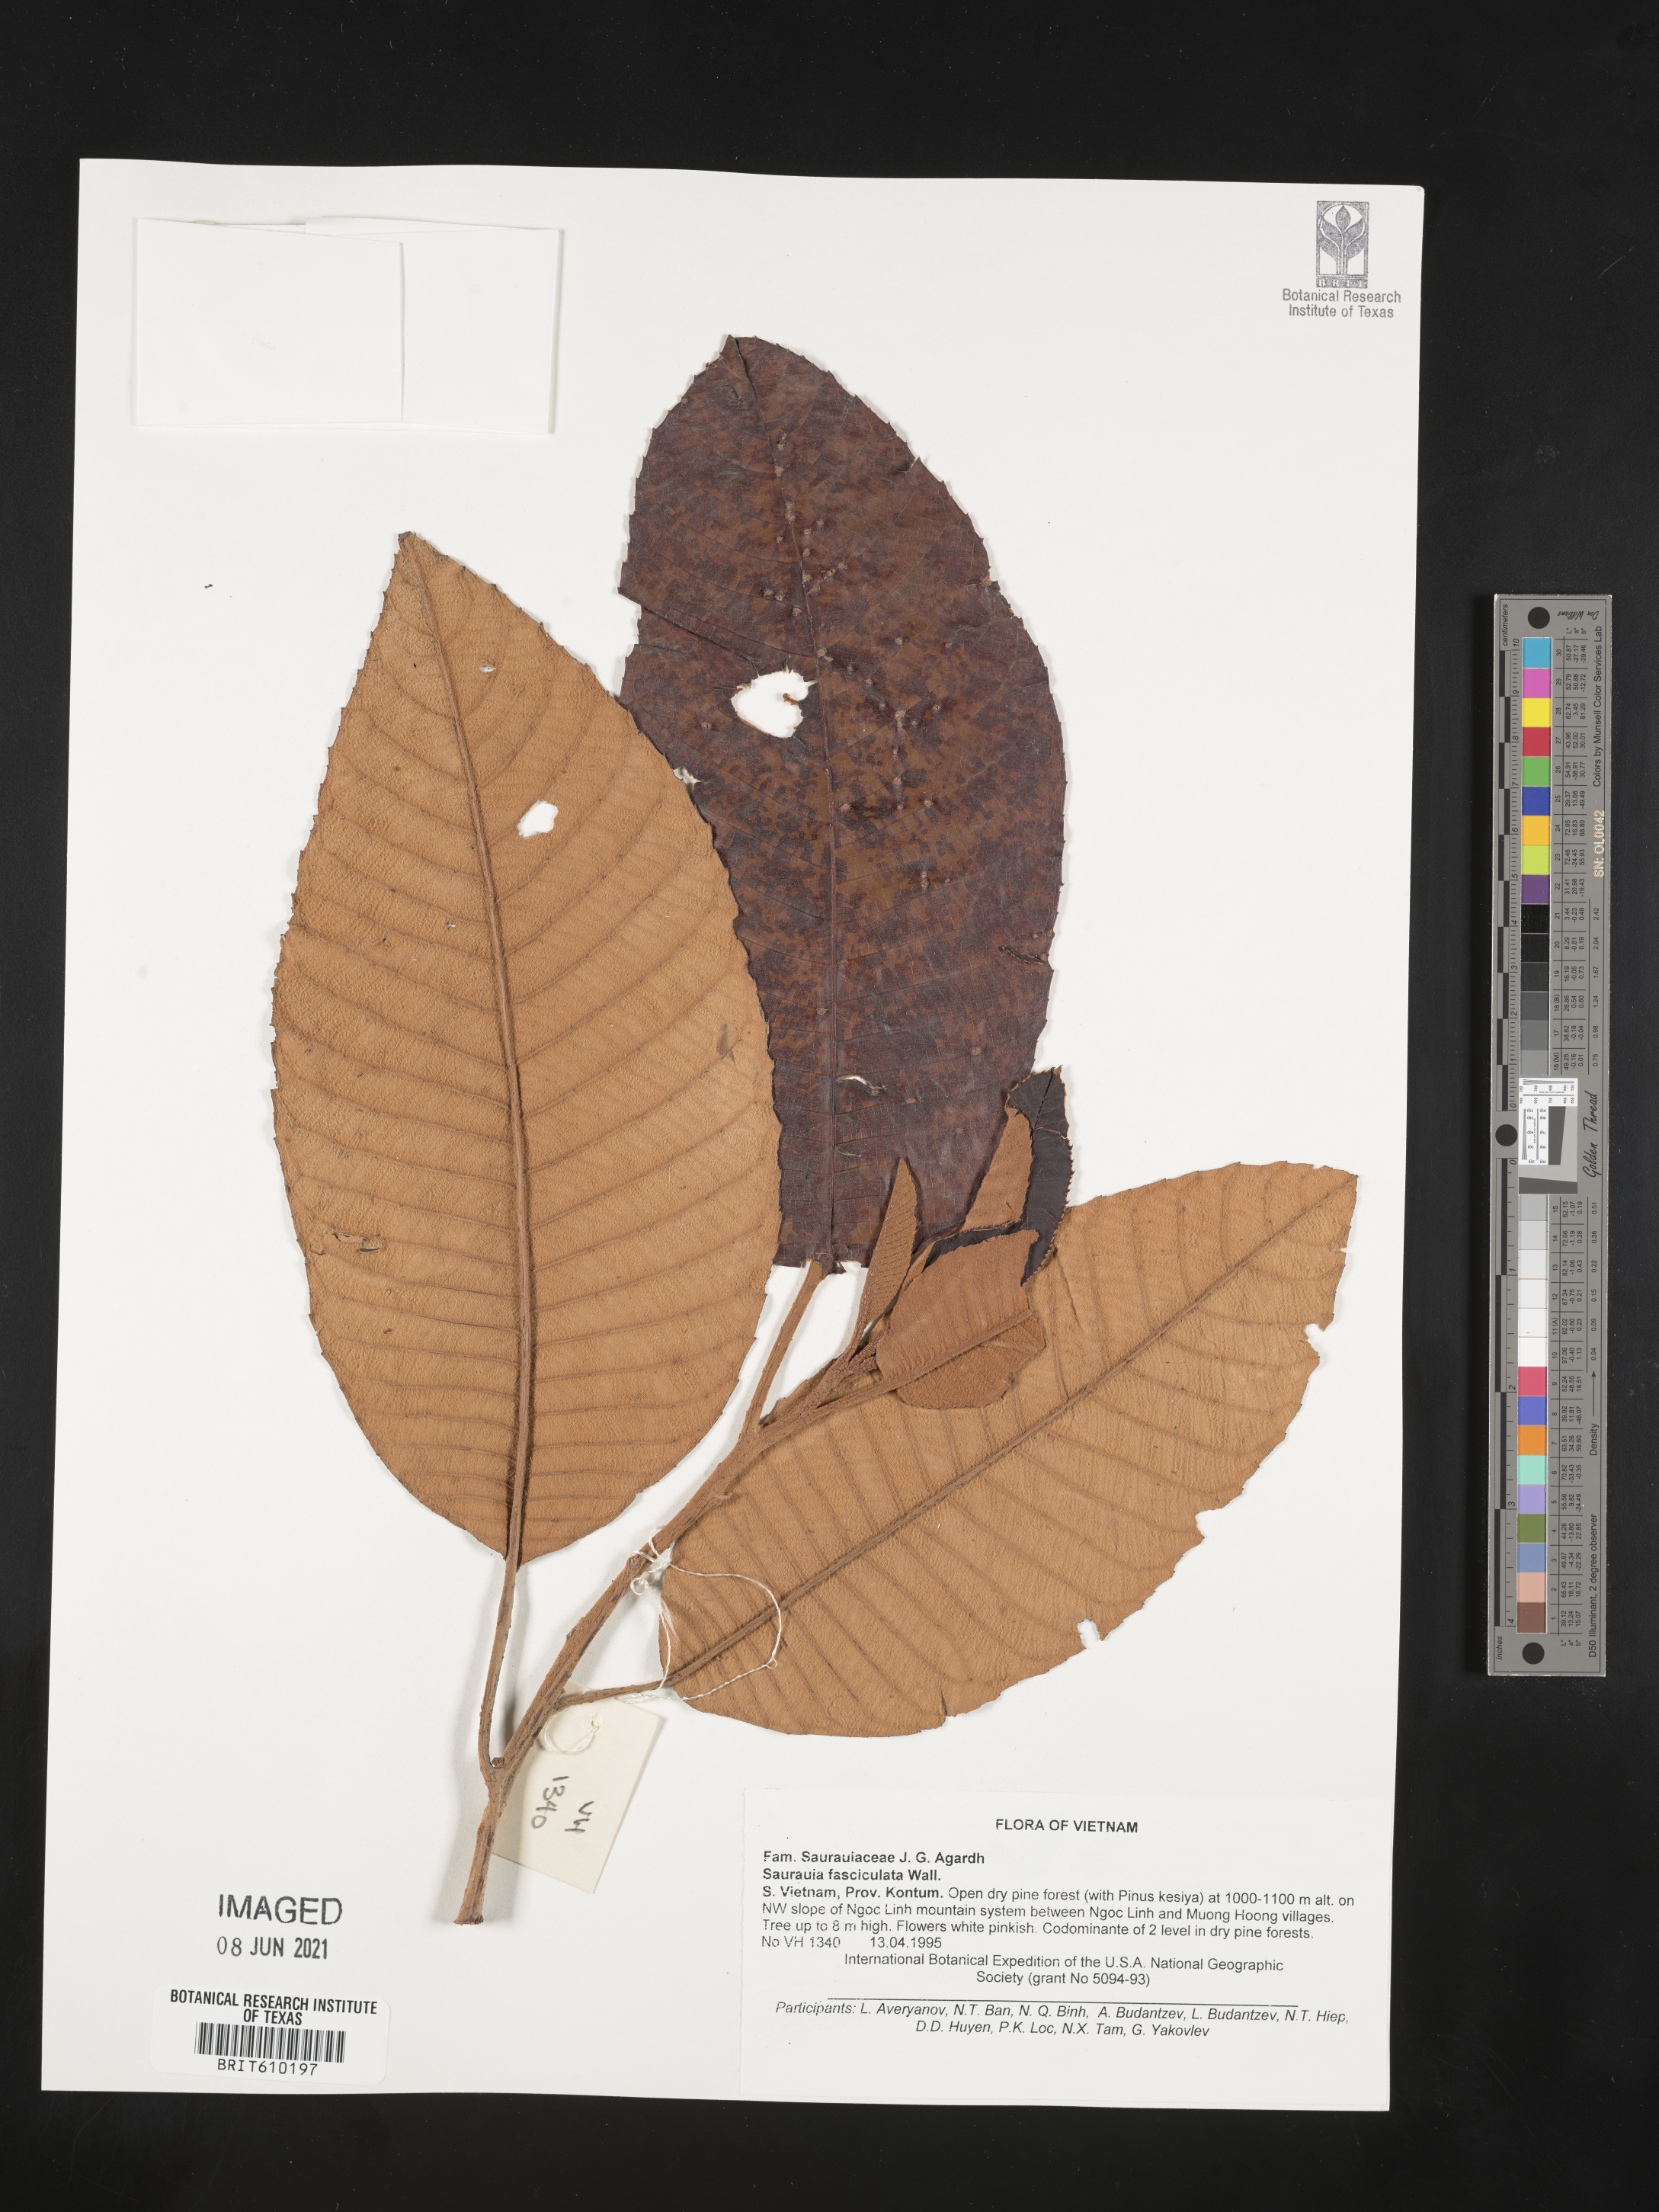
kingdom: Plantae
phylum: Tracheophyta
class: Magnoliopsida
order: Ericales
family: Actinidiaceae
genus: Saurauia
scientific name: Saurauia fasciculata
